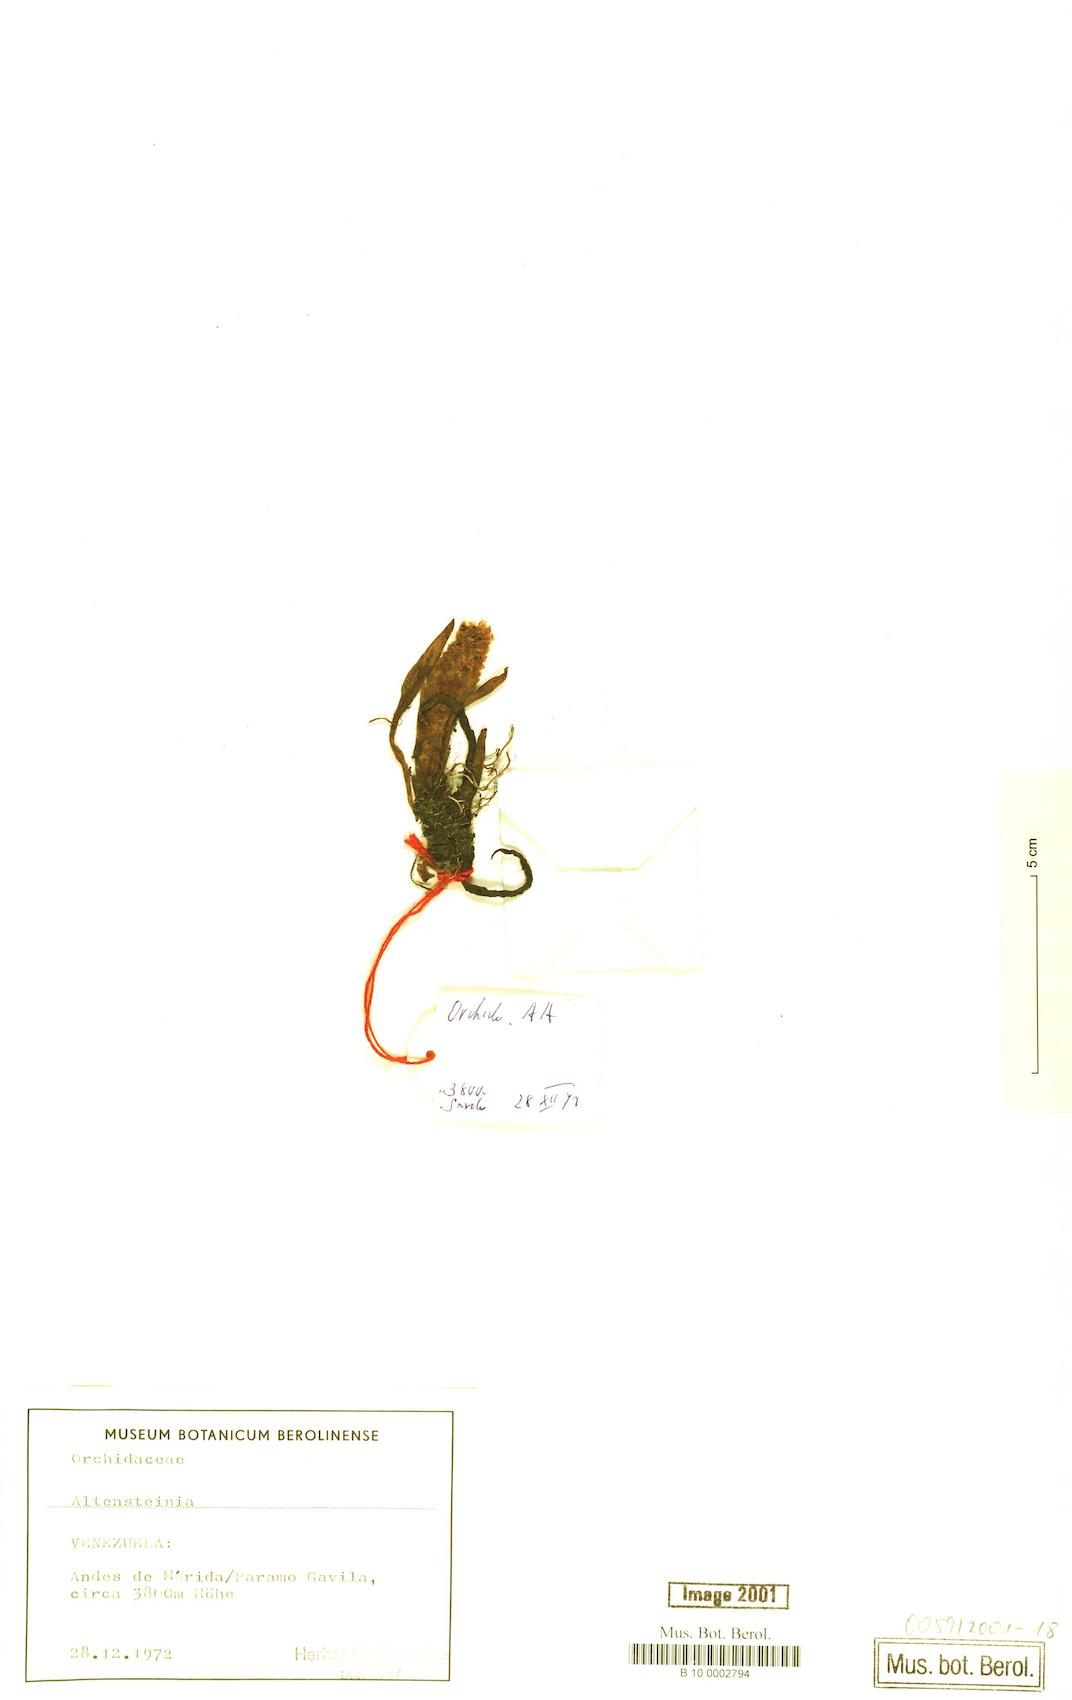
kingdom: Plantae
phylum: Tracheophyta
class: Liliopsida
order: Asparagales
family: Orchidaceae
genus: Myrosmodes
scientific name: Myrosmodes cochleare
